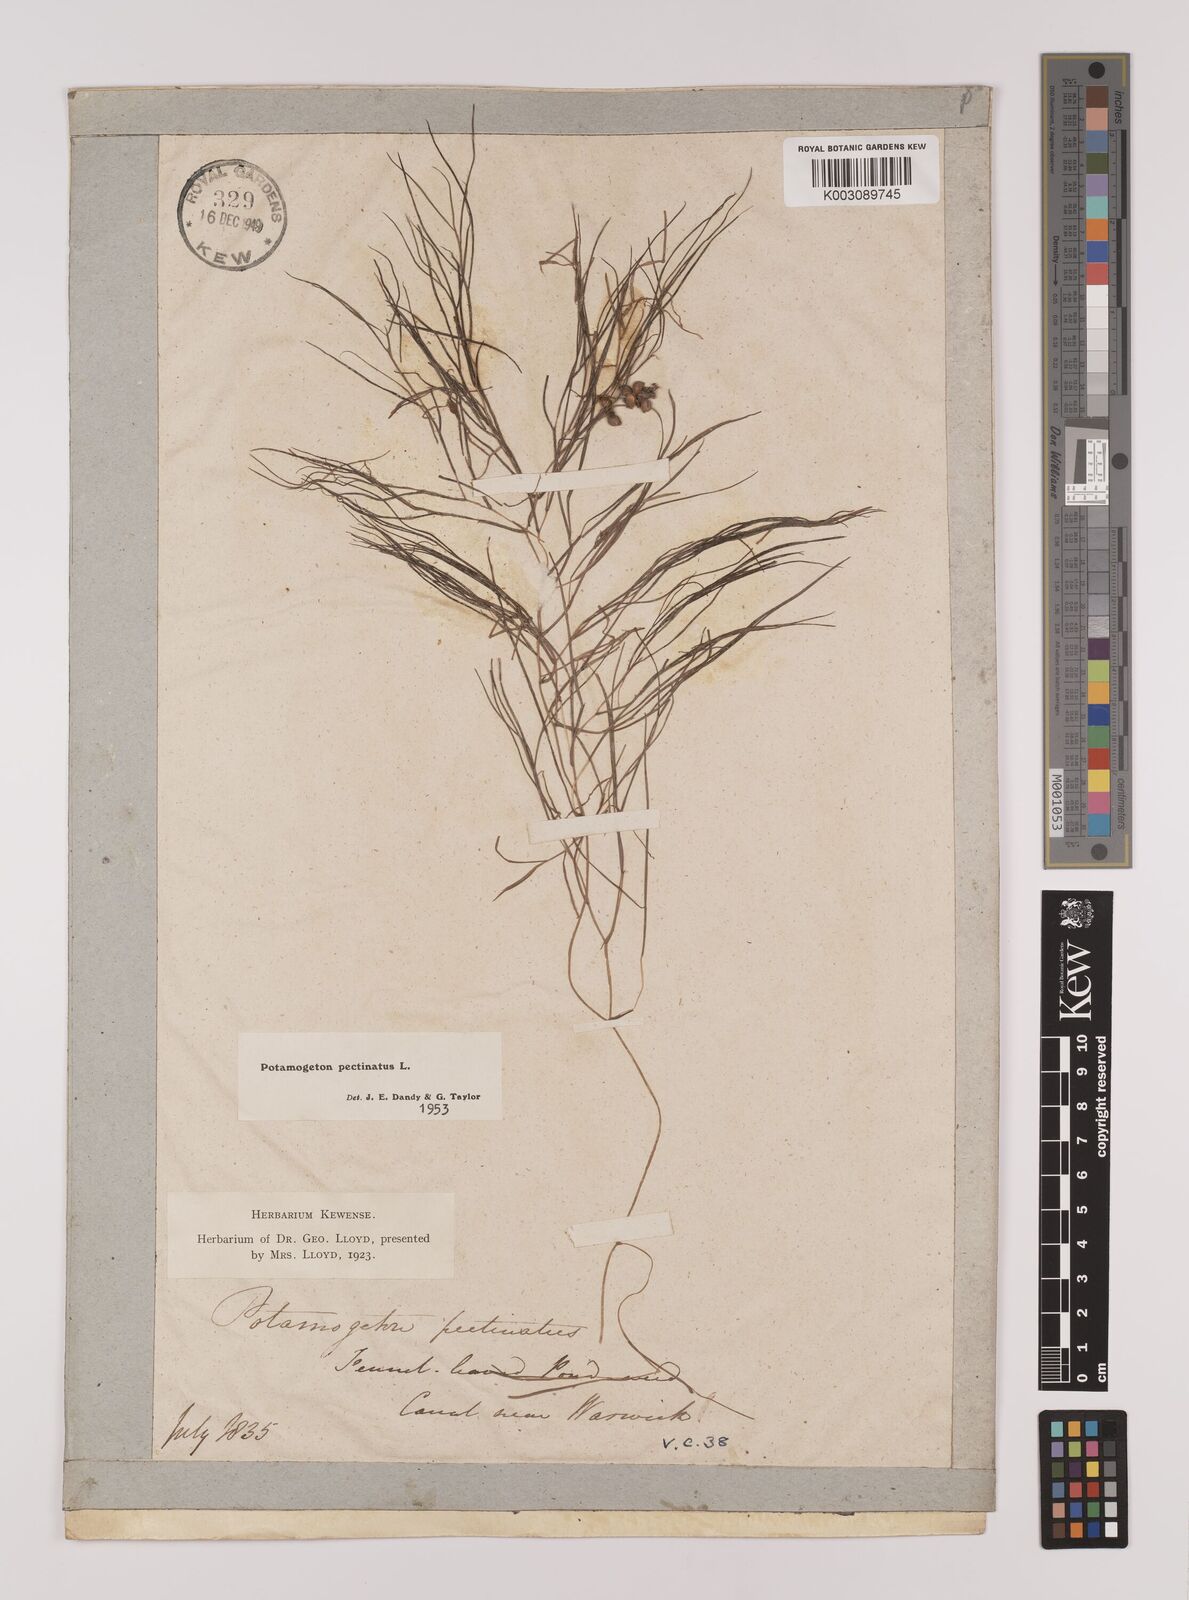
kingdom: Plantae
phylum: Tracheophyta
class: Liliopsida
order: Alismatales
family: Potamogetonaceae
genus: Stuckenia
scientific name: Stuckenia pectinata
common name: Sago pondweed
